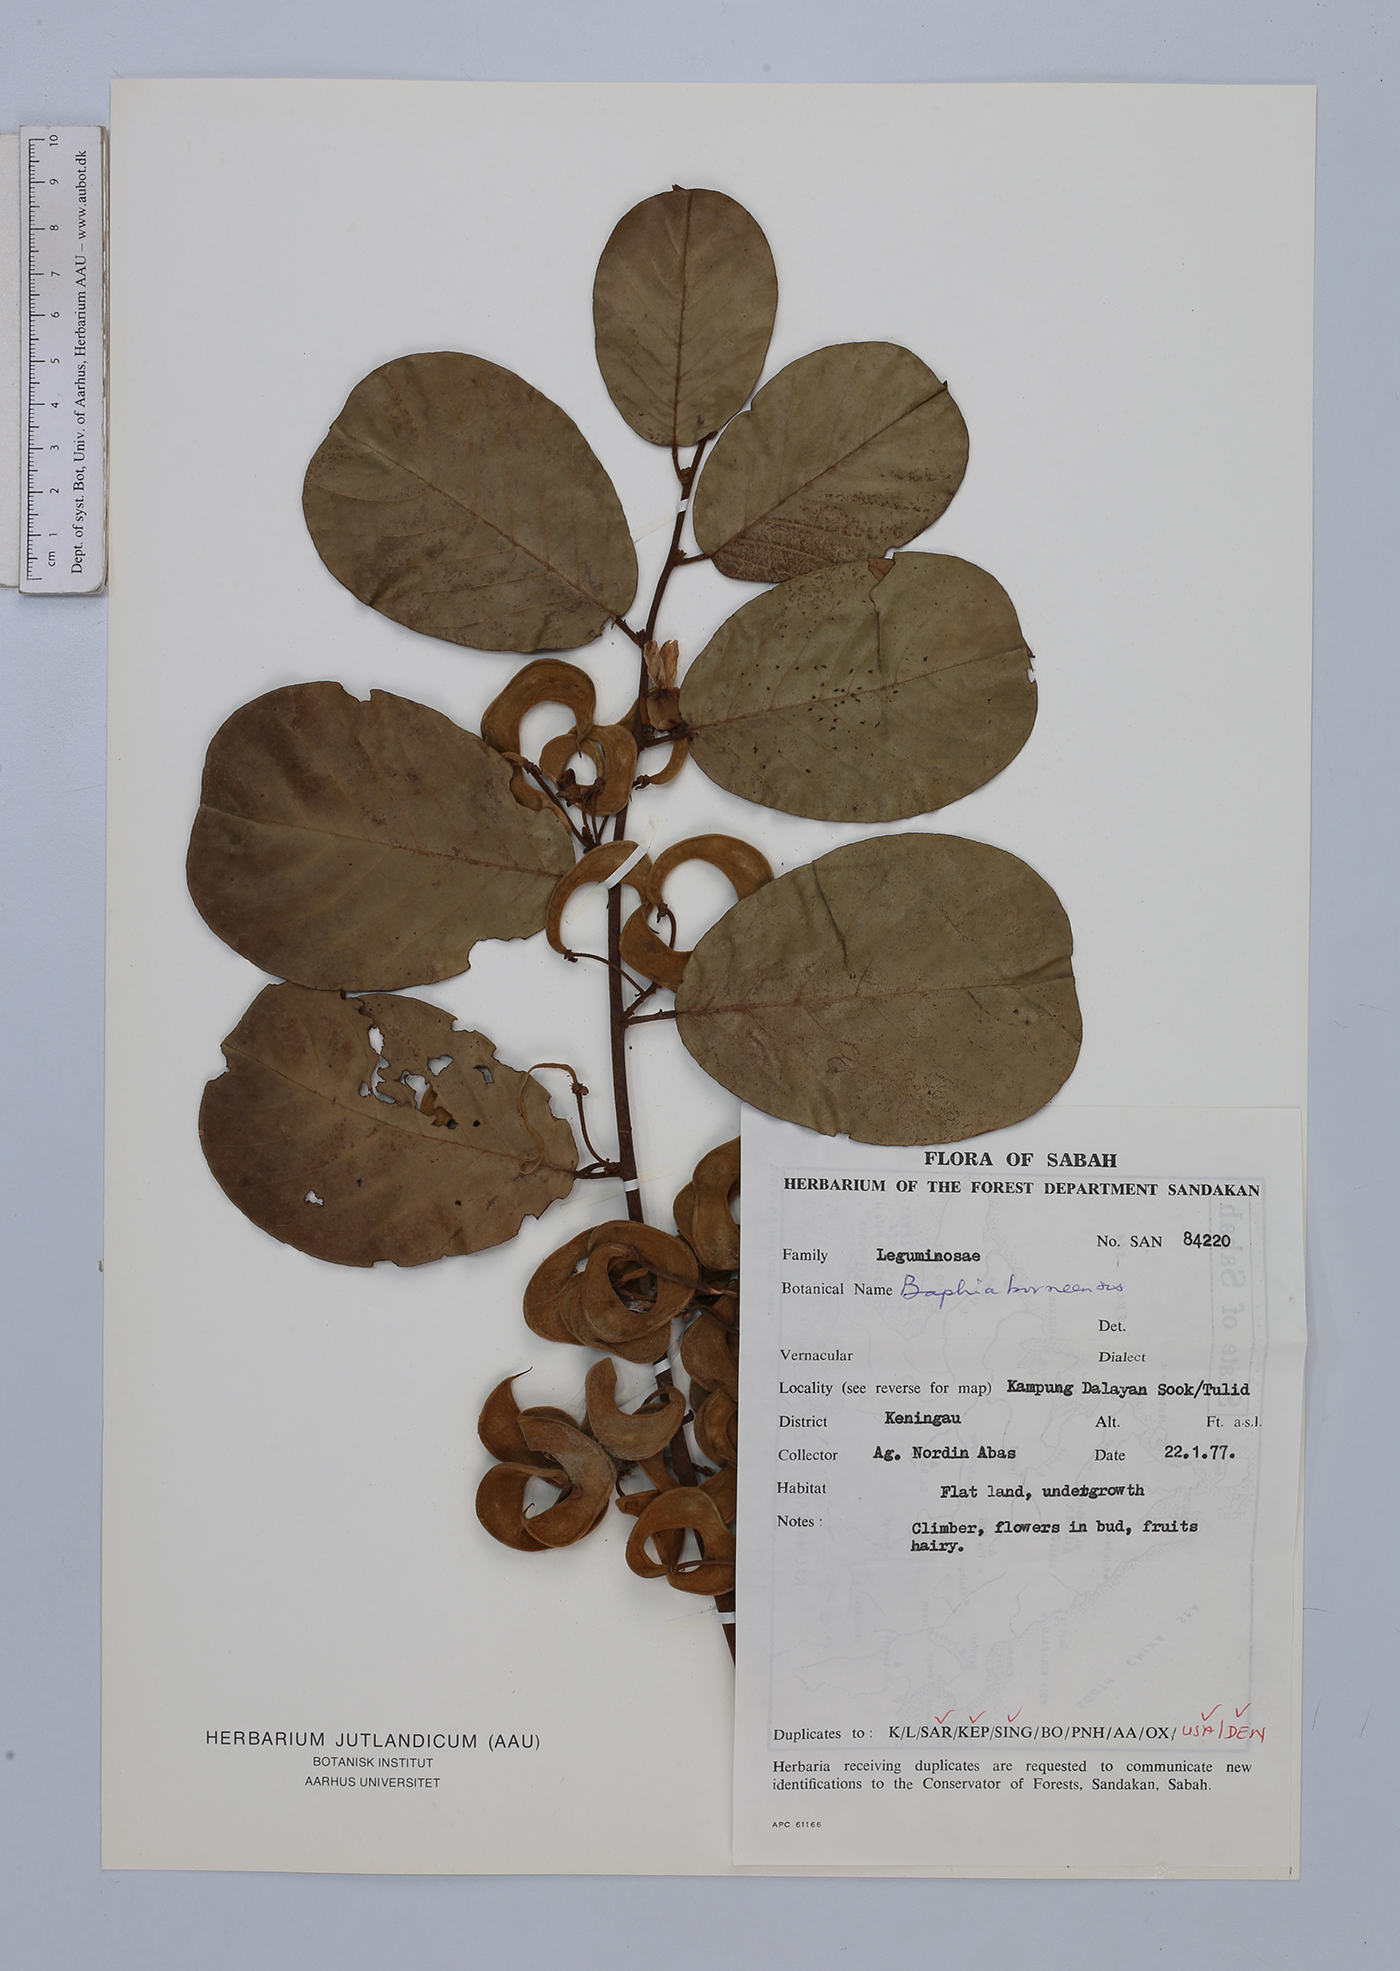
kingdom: Plantae
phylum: Tracheophyta
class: Magnoliopsida
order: Fabales
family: Fabaceae
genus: Phanera
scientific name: Phanera semibifida
